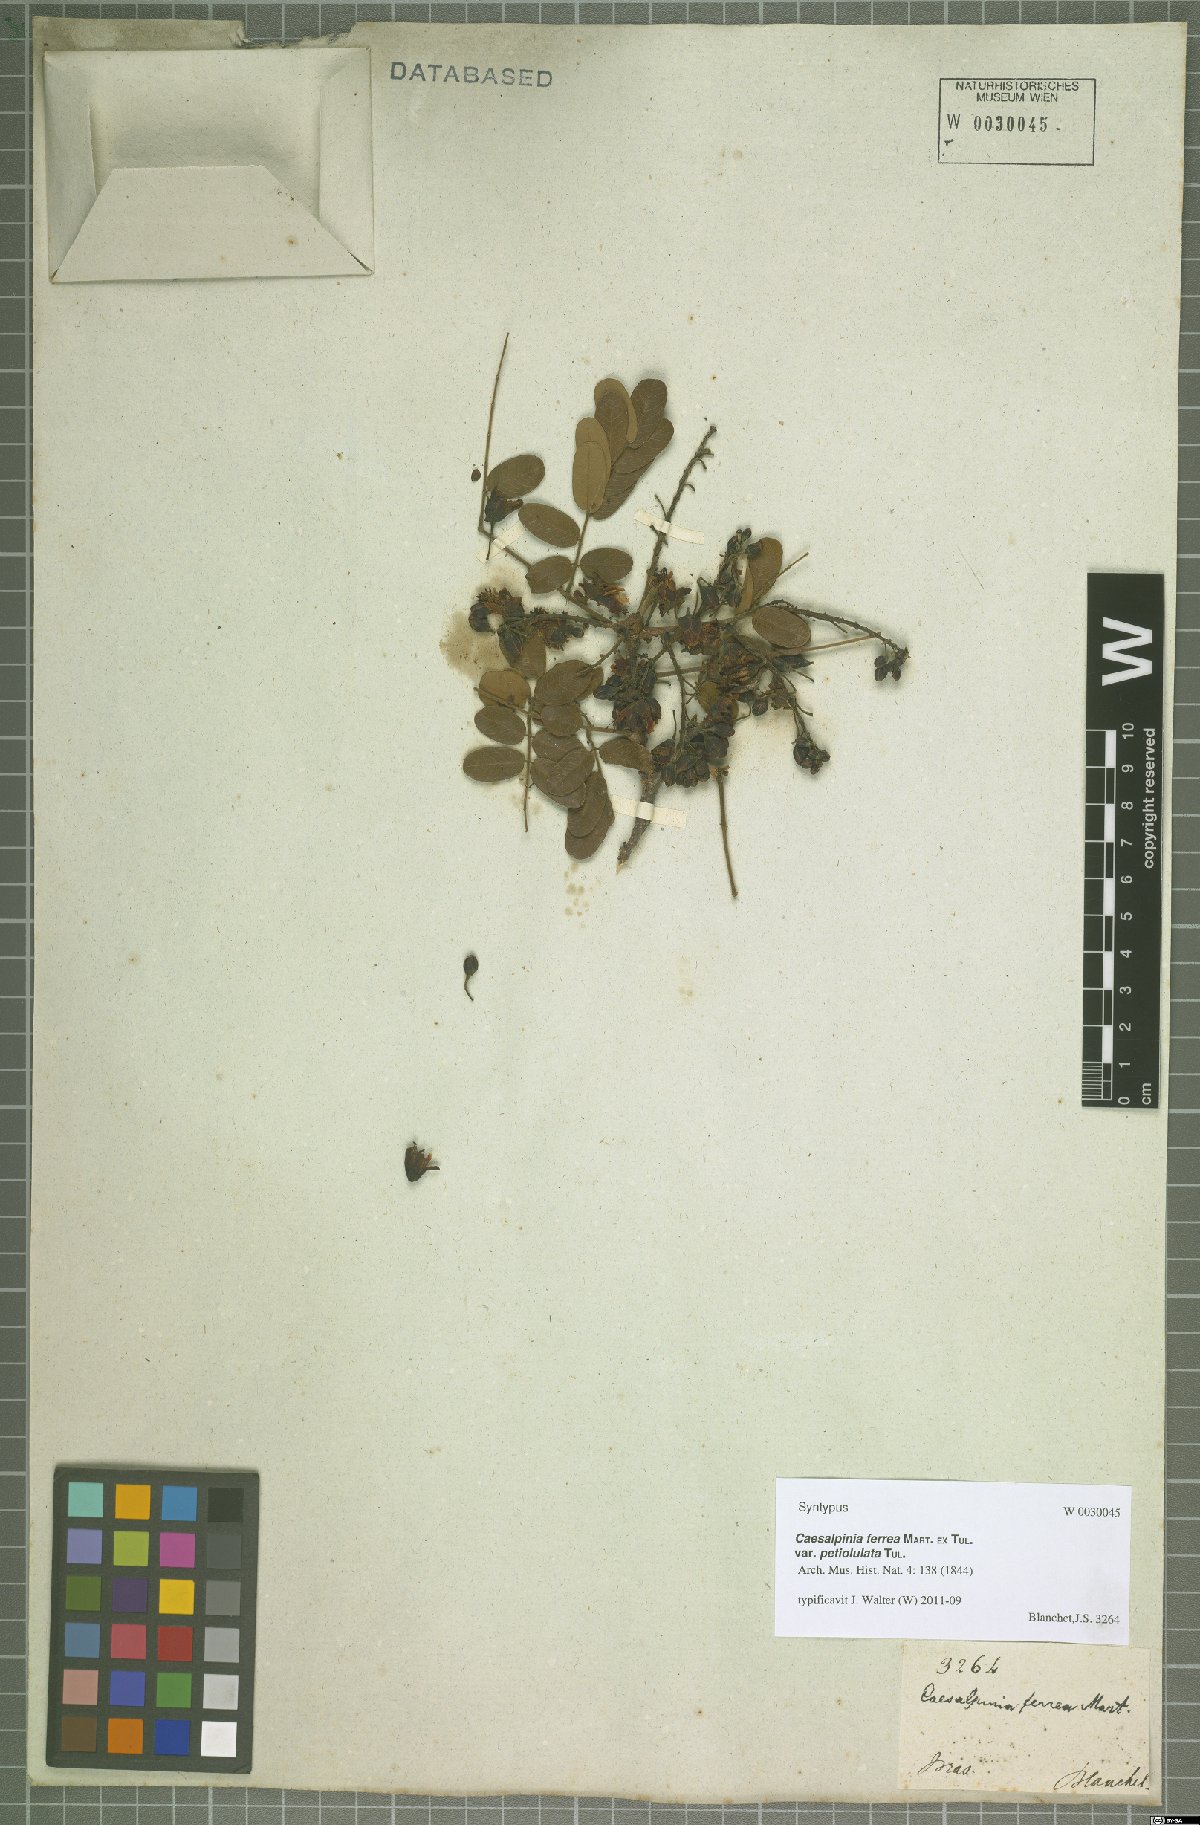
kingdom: Plantae
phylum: Tracheophyta
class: Magnoliopsida
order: Fabales
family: Fabaceae
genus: Libidibia
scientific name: Libidibia ferrea
